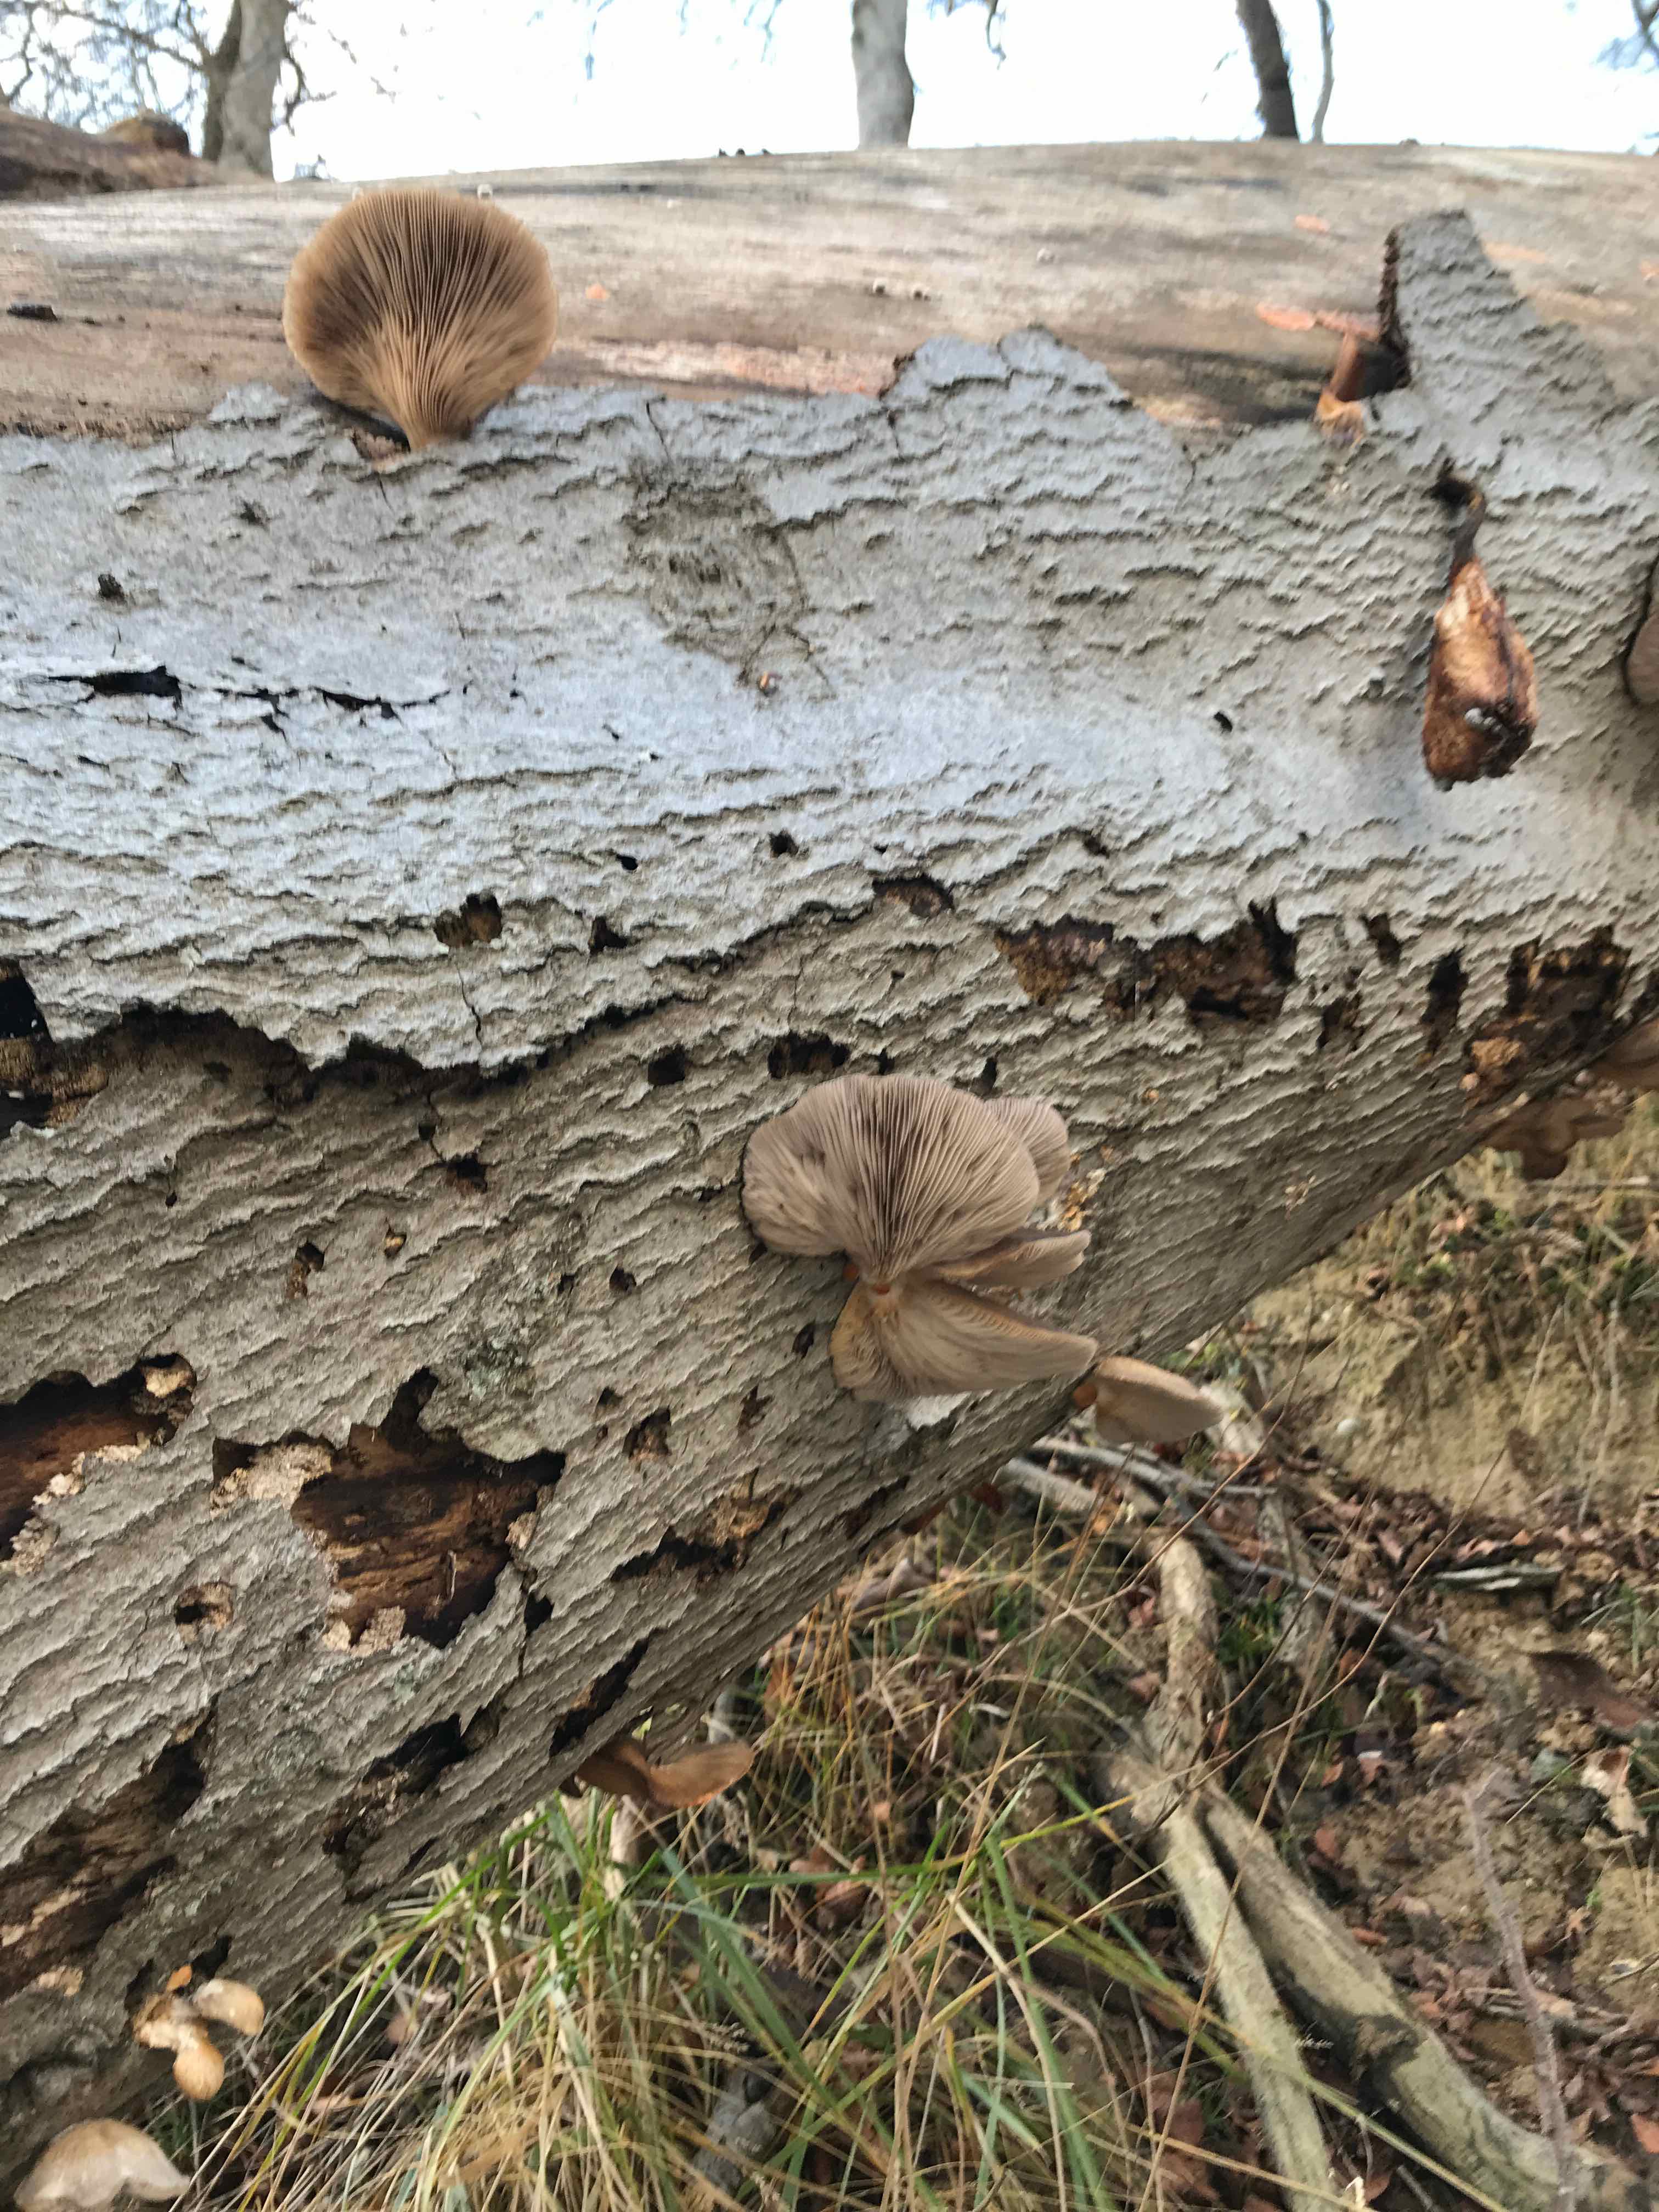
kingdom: Fungi
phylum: Basidiomycota
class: Agaricomycetes
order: Agaricales
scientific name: Agaricales
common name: champignonordenen
